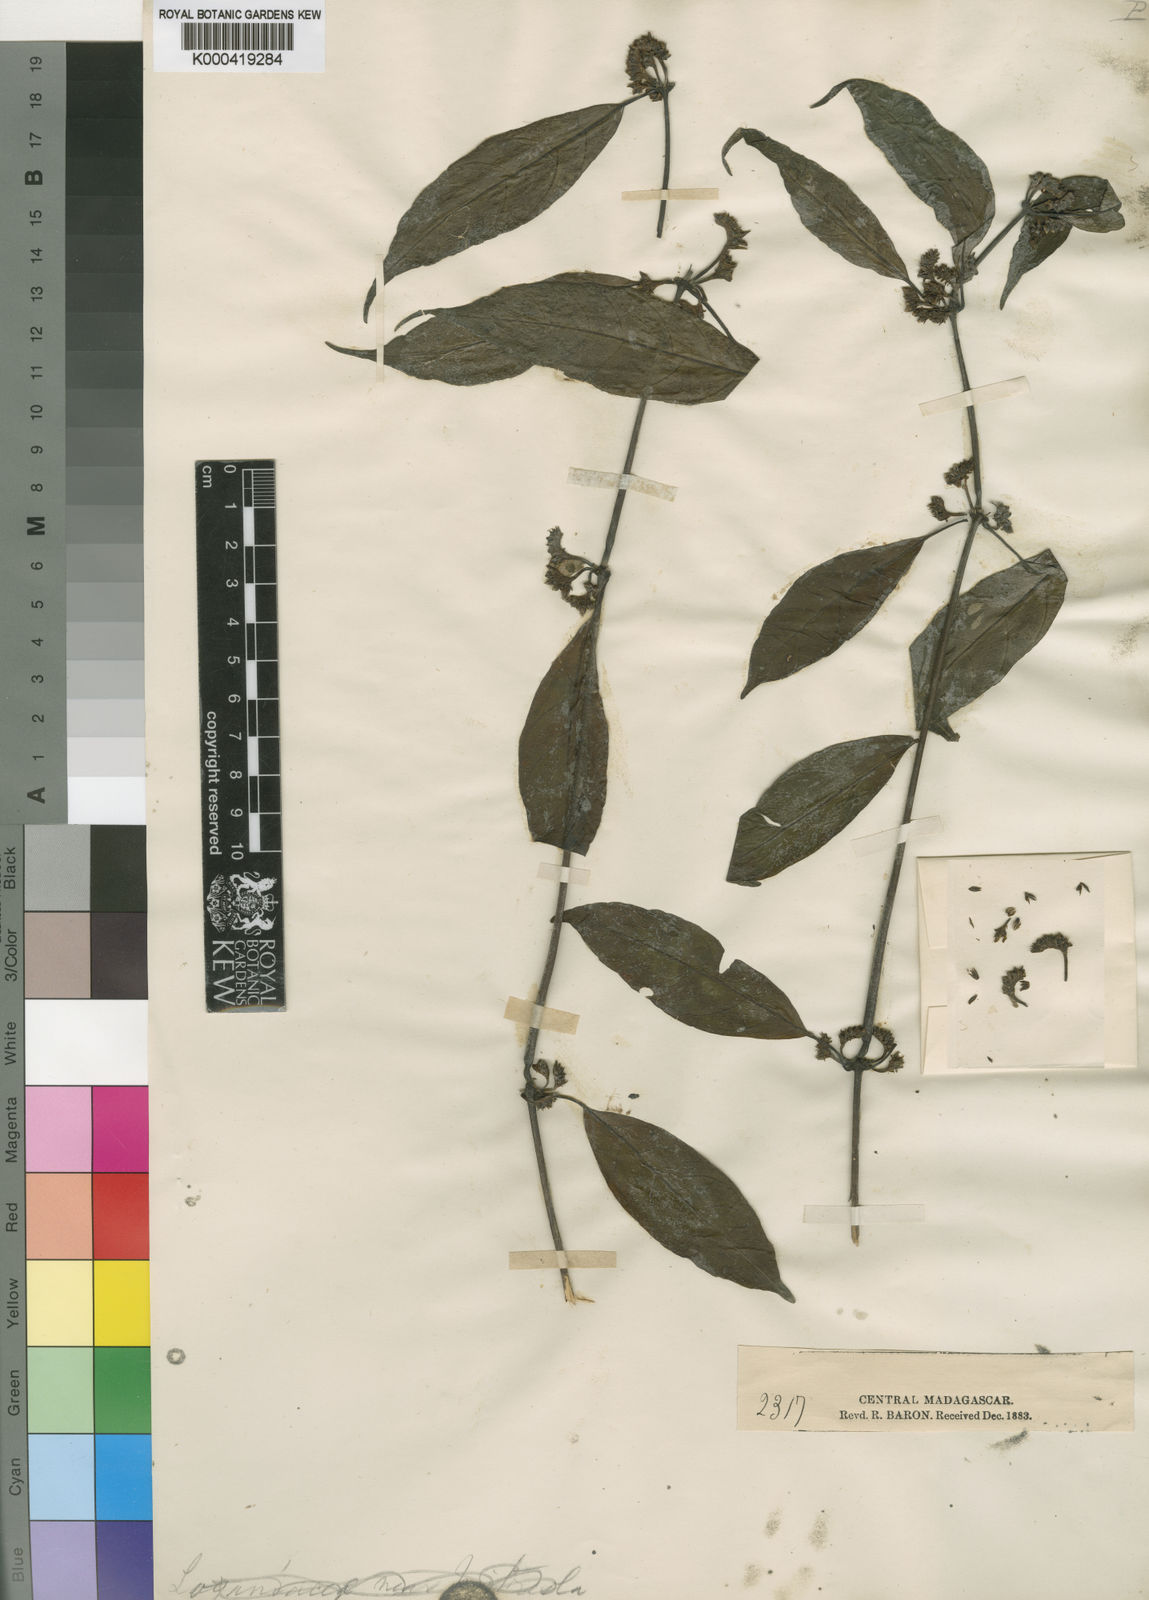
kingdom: Plantae
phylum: Tracheophyta
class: Magnoliopsida
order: Lamiales
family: Acanthaceae
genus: Justicia
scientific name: Justicia
